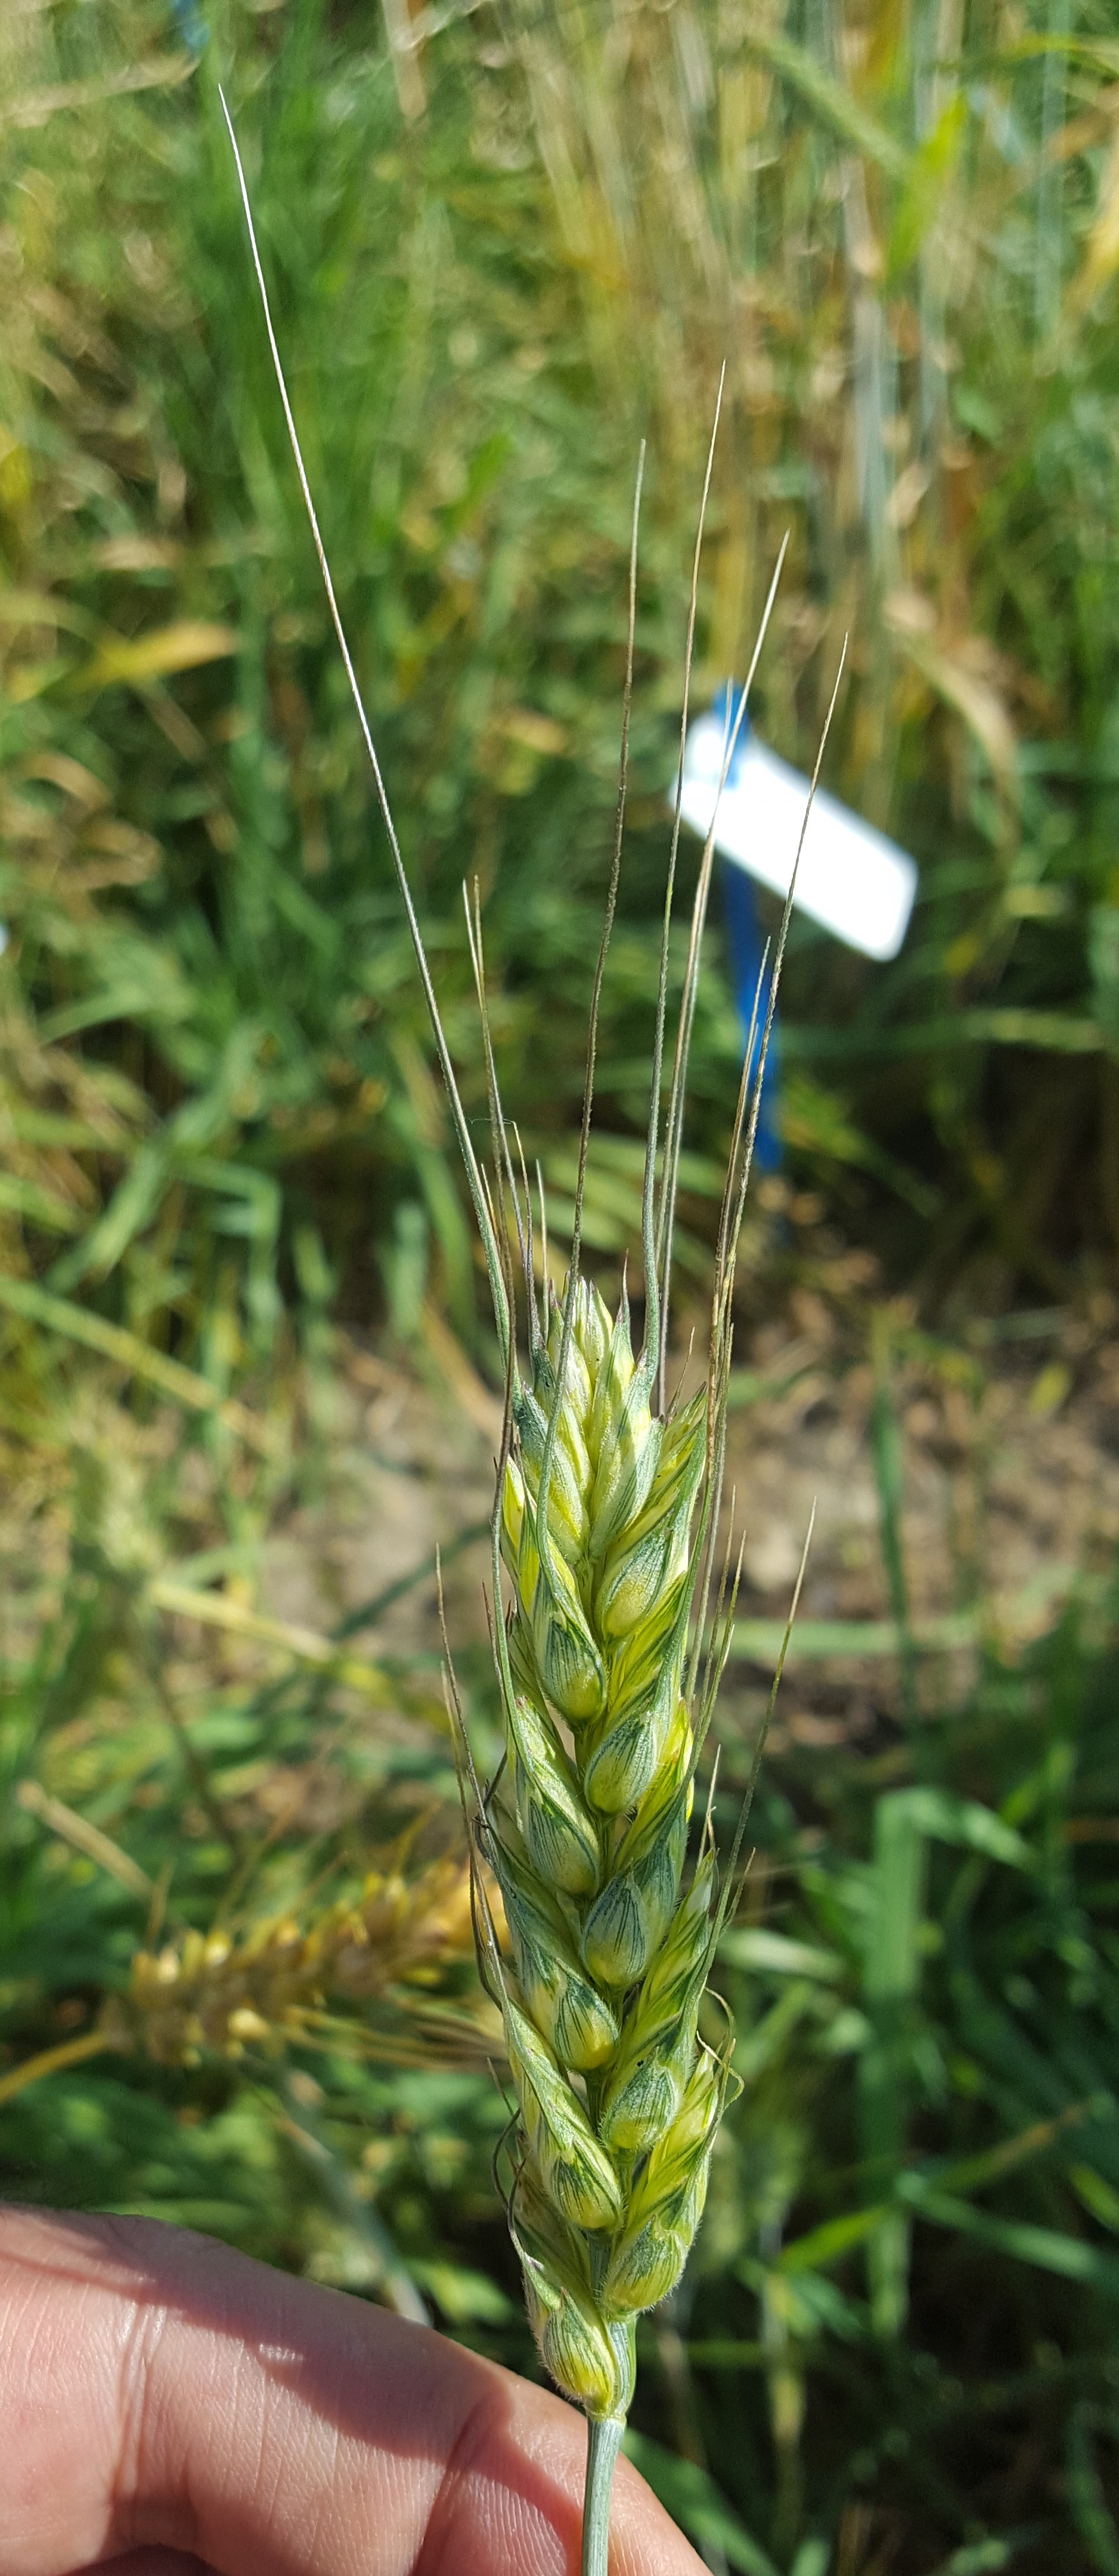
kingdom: Plantae
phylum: Tracheophyta
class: Liliopsida
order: Poales
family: Poaceae
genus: Triticum
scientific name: Triticum turgidum
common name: Rivet wheat
